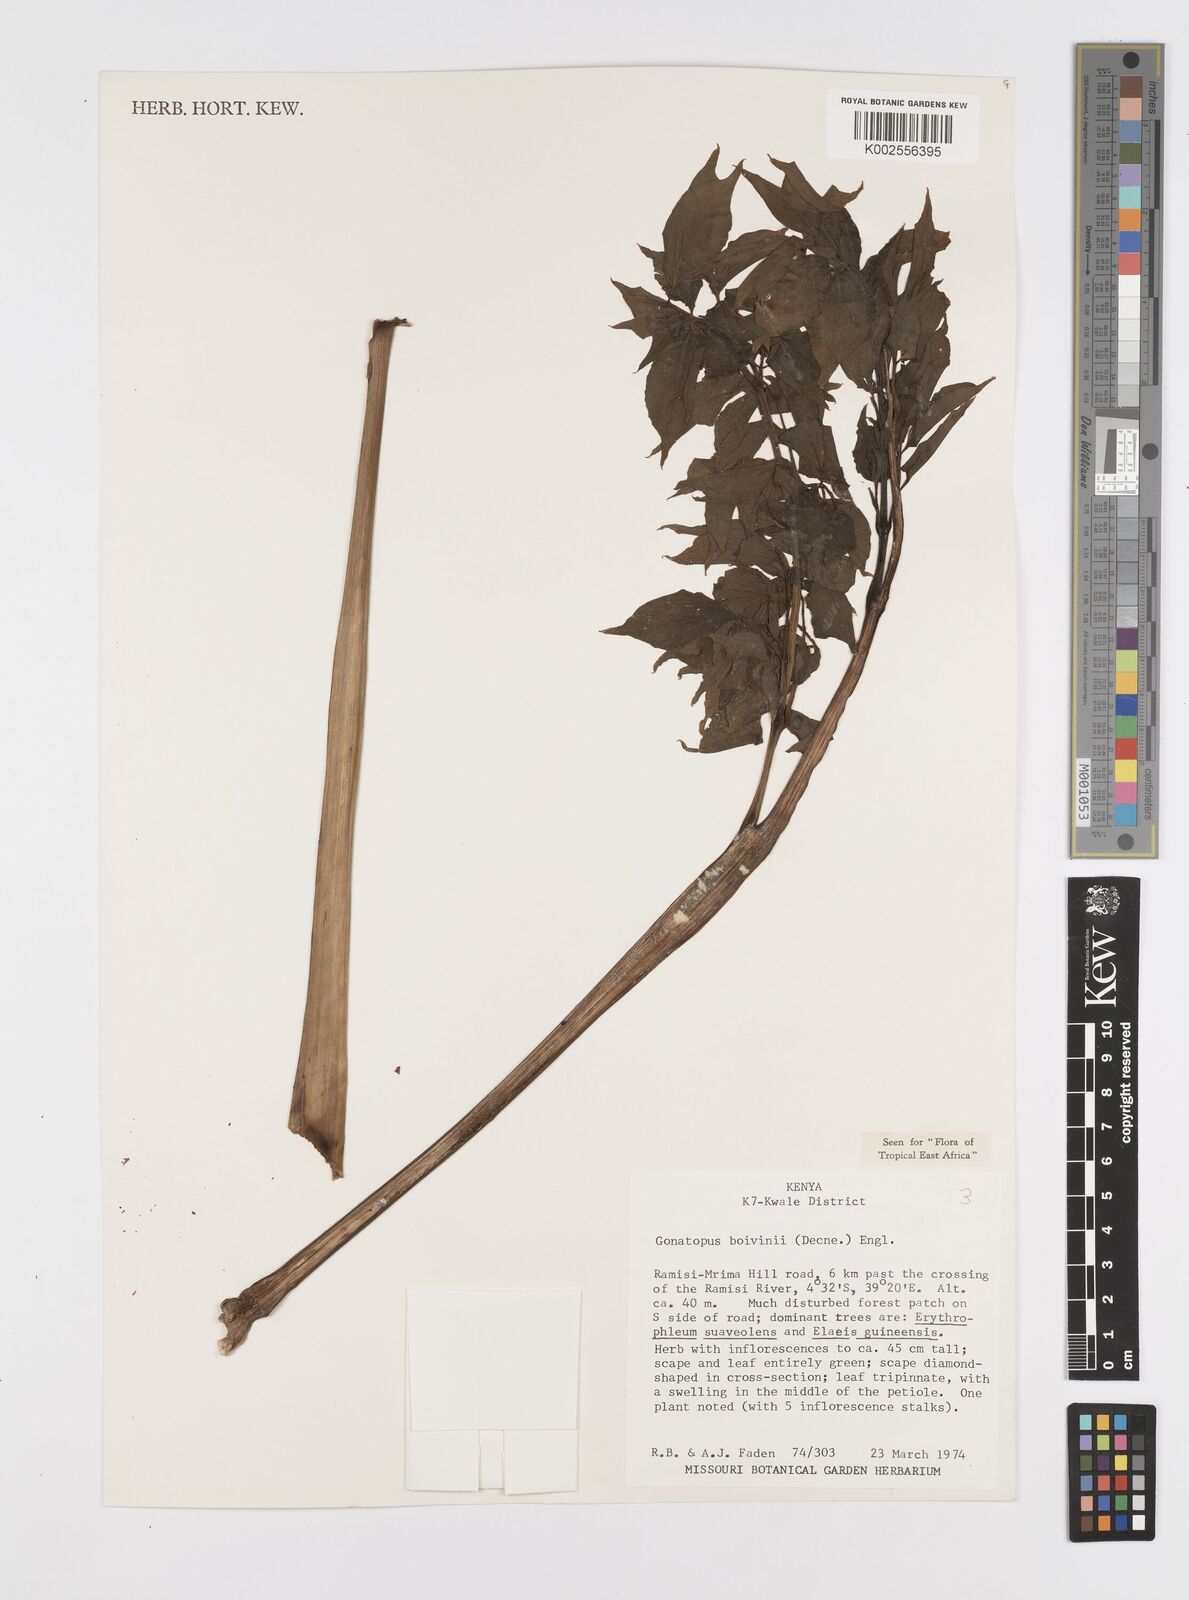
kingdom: Plantae
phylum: Tracheophyta
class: Liliopsida
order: Alismatales
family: Araceae
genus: Gonatopus
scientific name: Gonatopus boivinii
